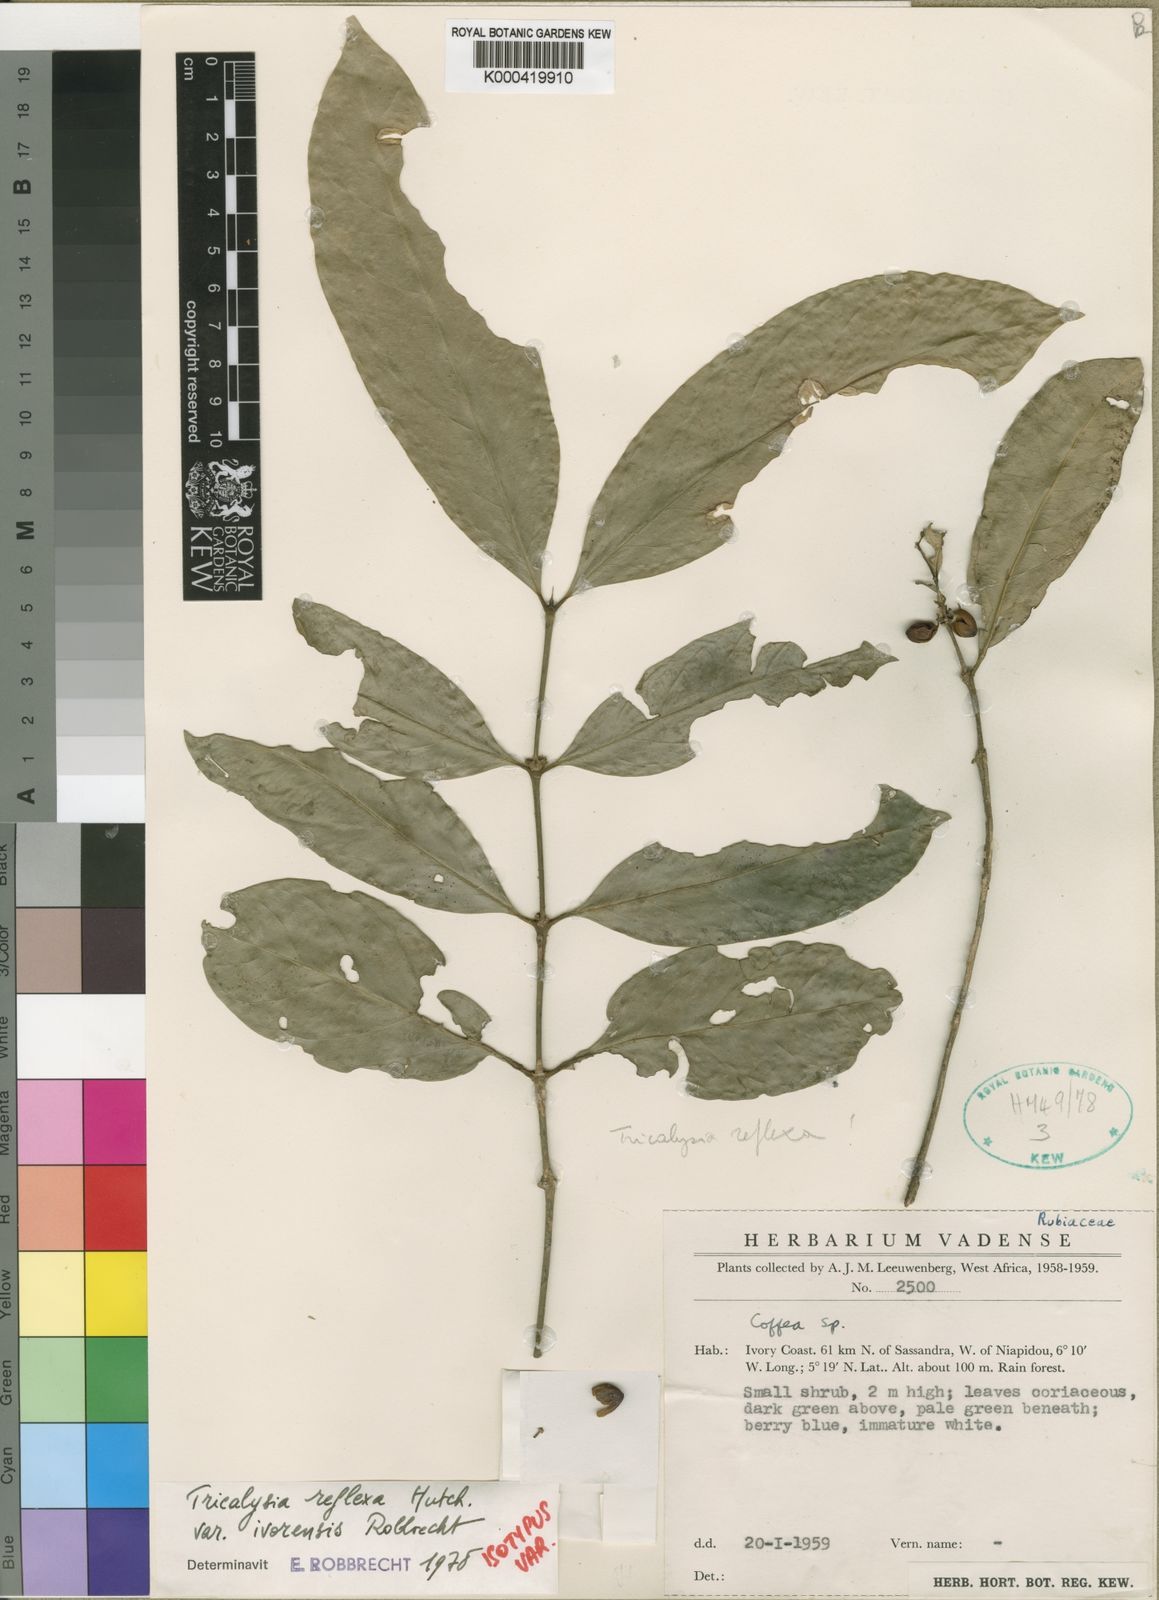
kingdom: Plantae
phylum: Tracheophyta
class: Magnoliopsida
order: Gentianales
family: Rubiaceae
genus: Empogona
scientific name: Empogona reflexa
